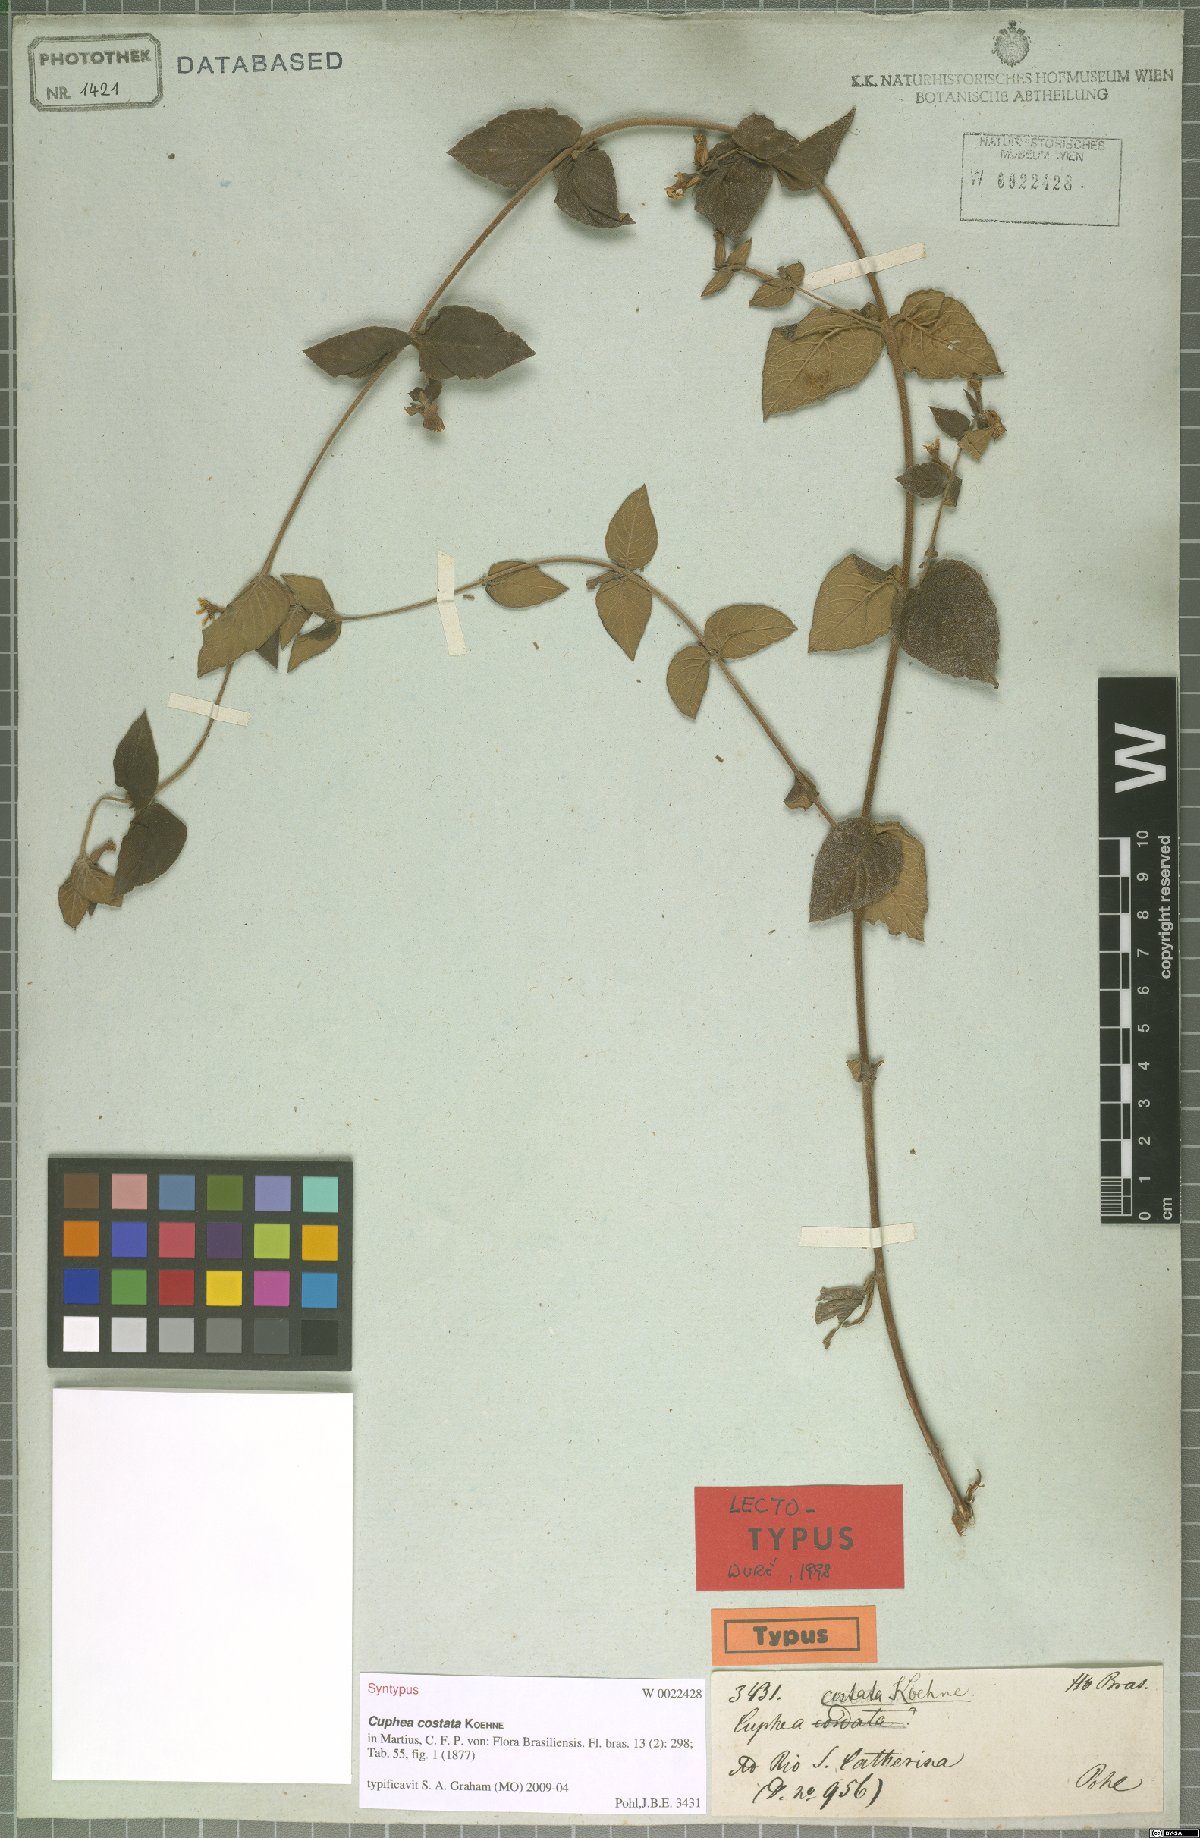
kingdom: Plantae
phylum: Tracheophyta
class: Magnoliopsida
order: Myrtales
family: Lythraceae
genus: Cuphea
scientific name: Cuphea sessiliflora
